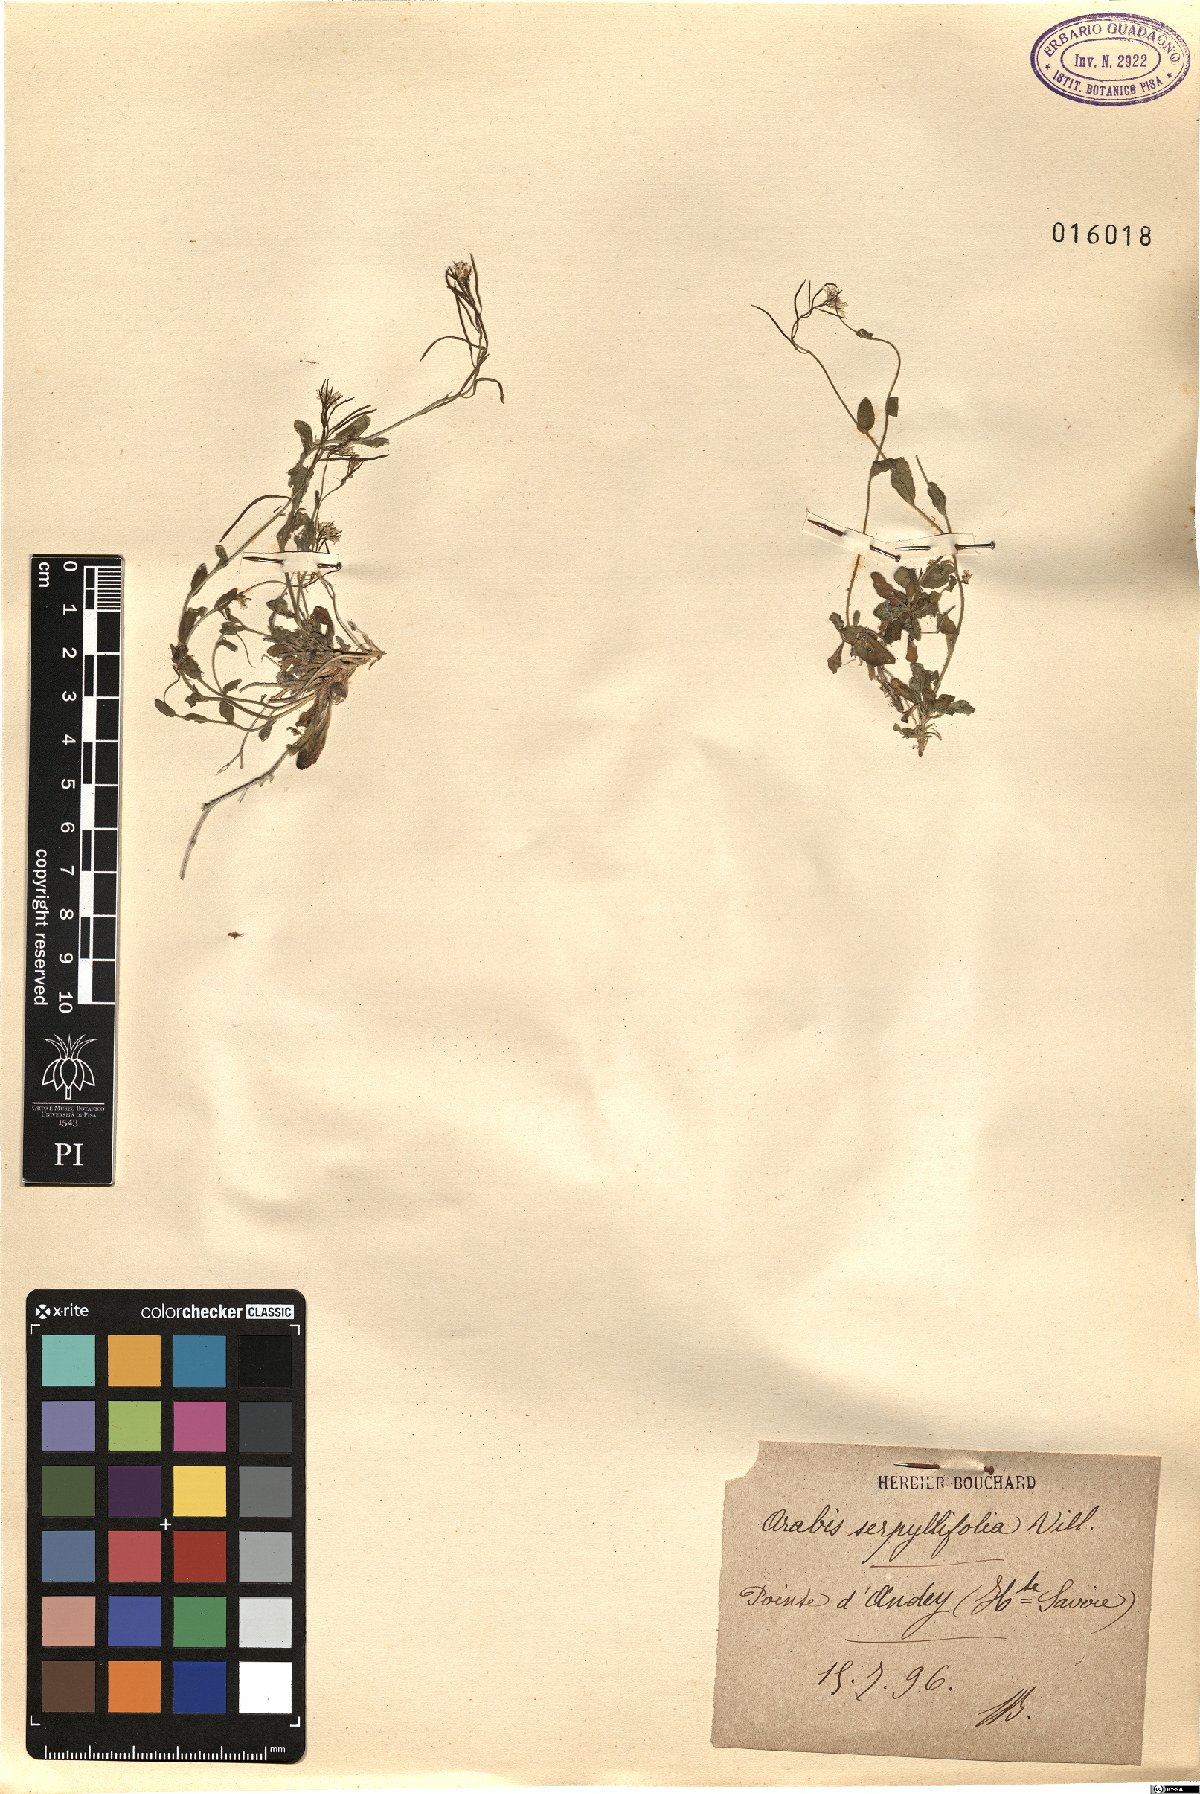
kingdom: Plantae
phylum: Tracheophyta
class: Magnoliopsida
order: Brassicales
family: Brassicaceae
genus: Arabis
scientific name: Arabis serpyllifolia
